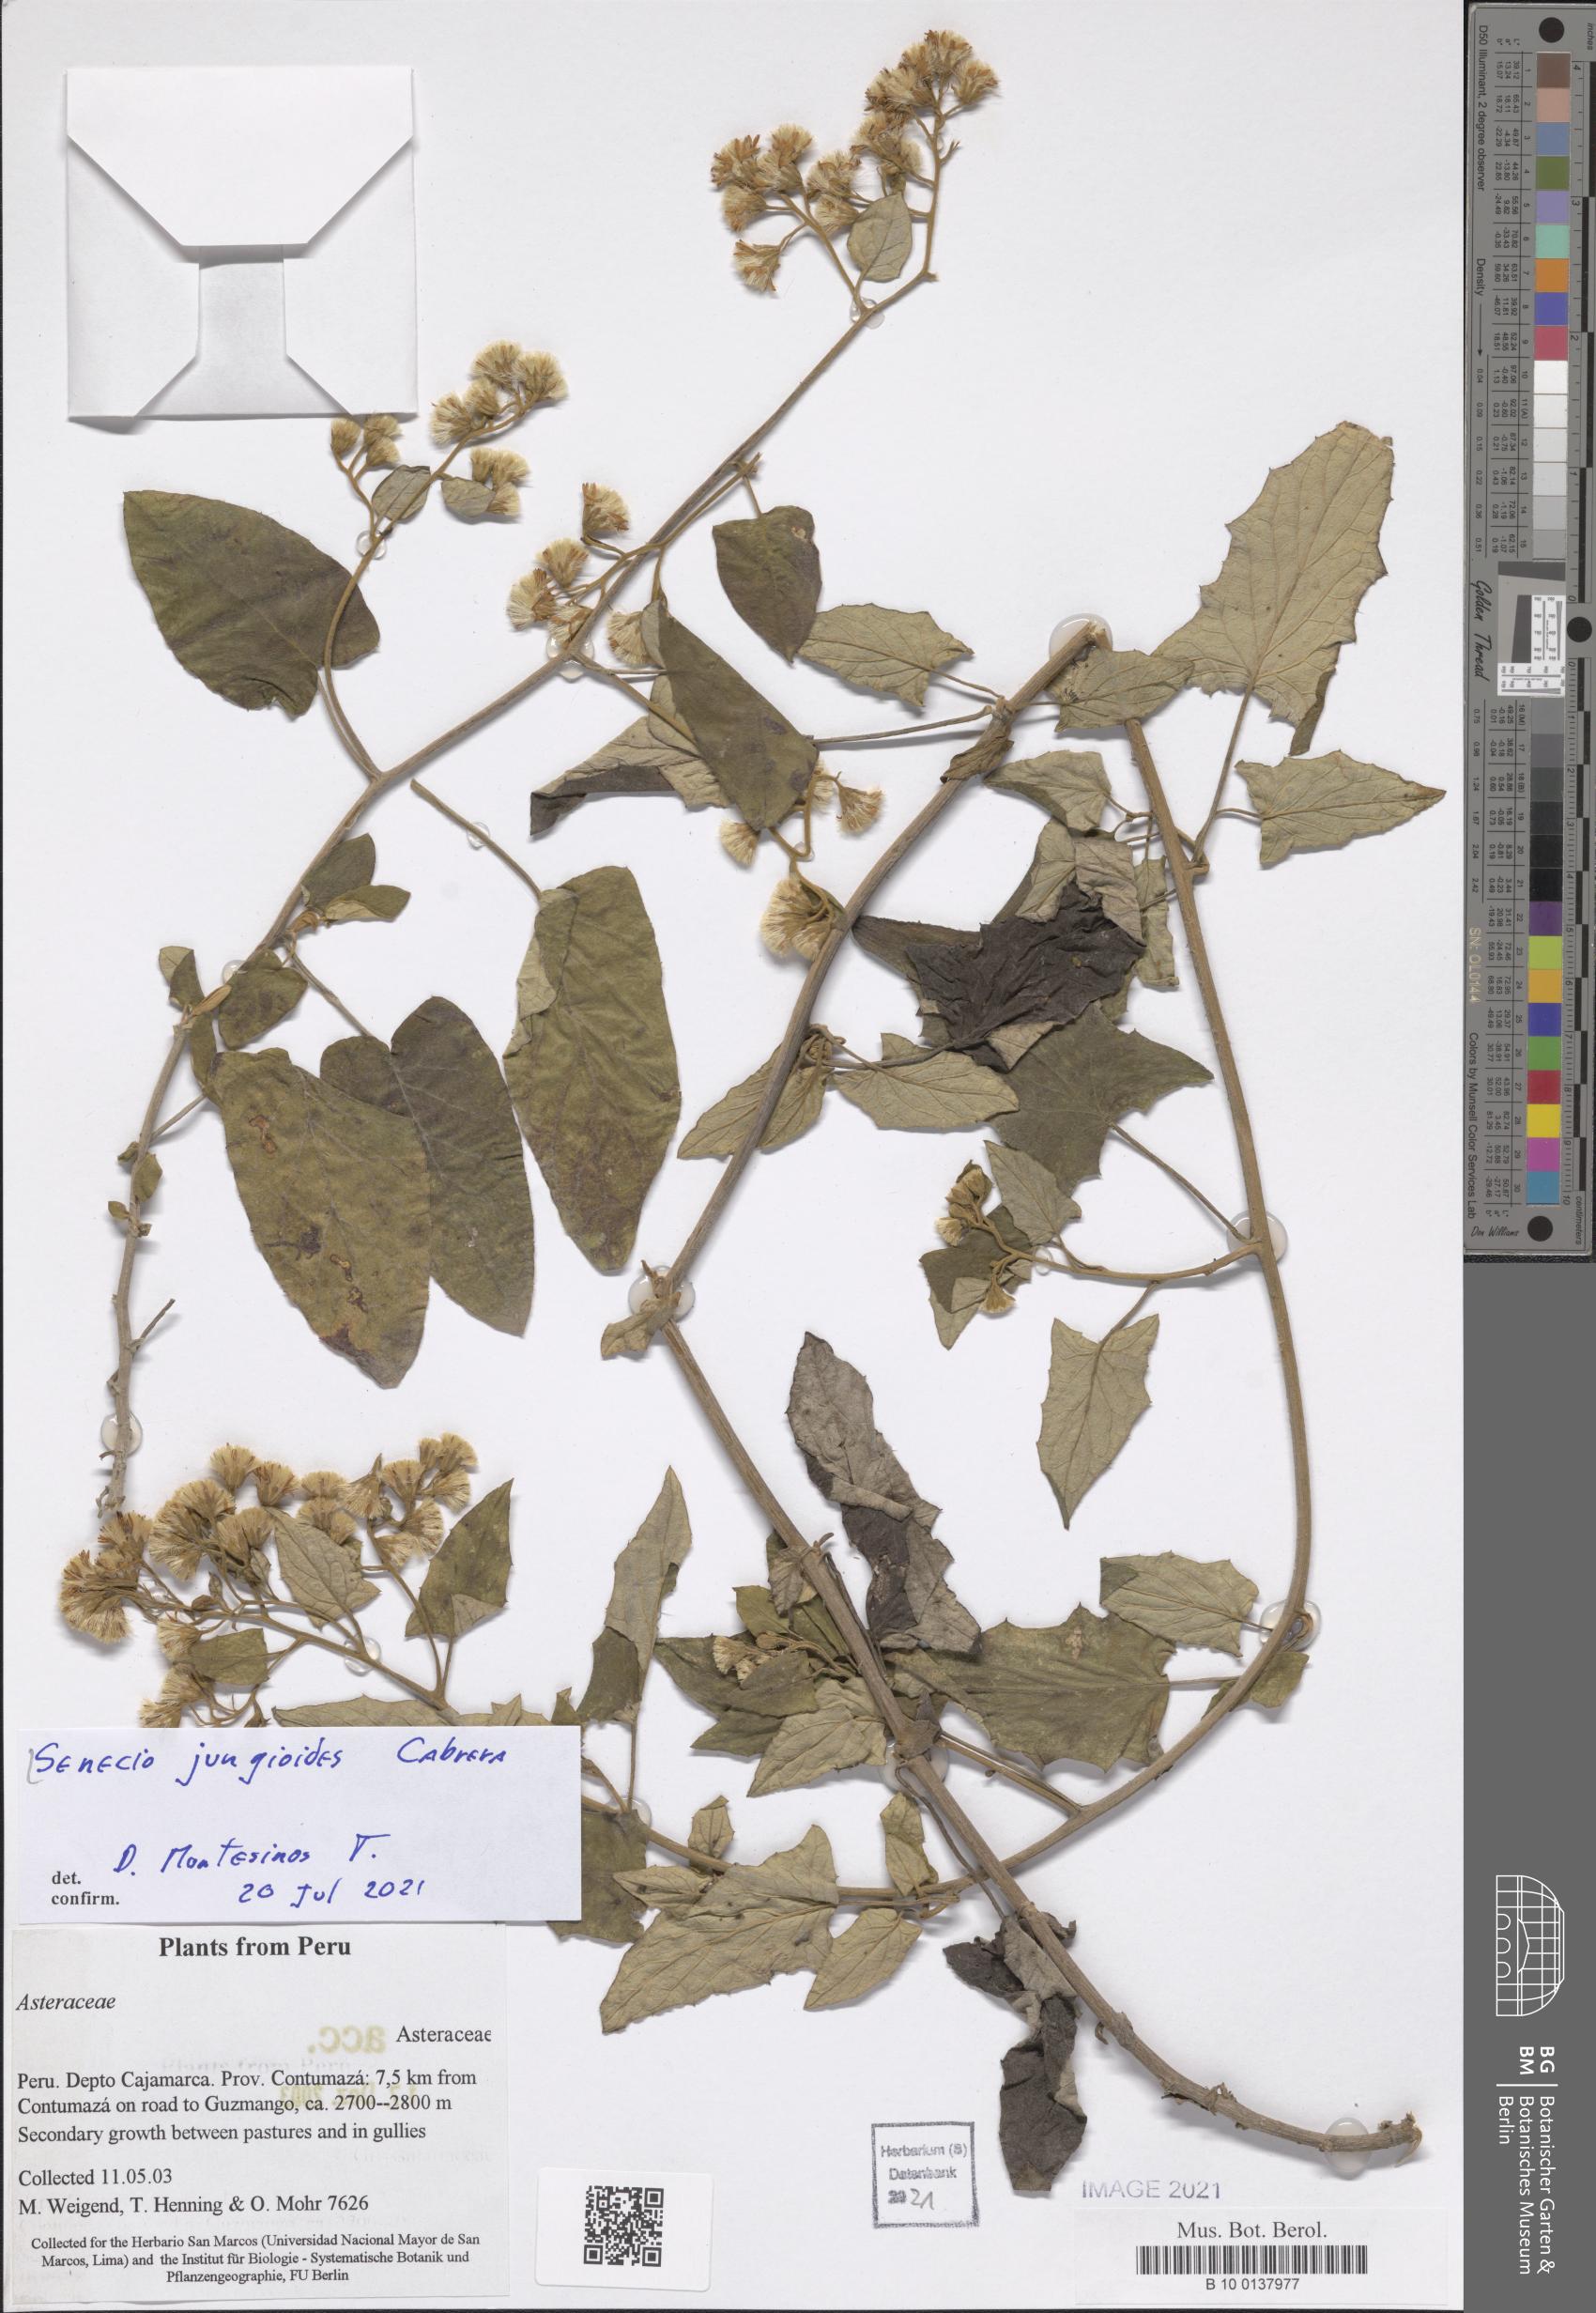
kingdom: Plantae
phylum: Tracheophyta
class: Magnoliopsida
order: Asterales
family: Asteraceae
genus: Senecio
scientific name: Senecio jungioides
